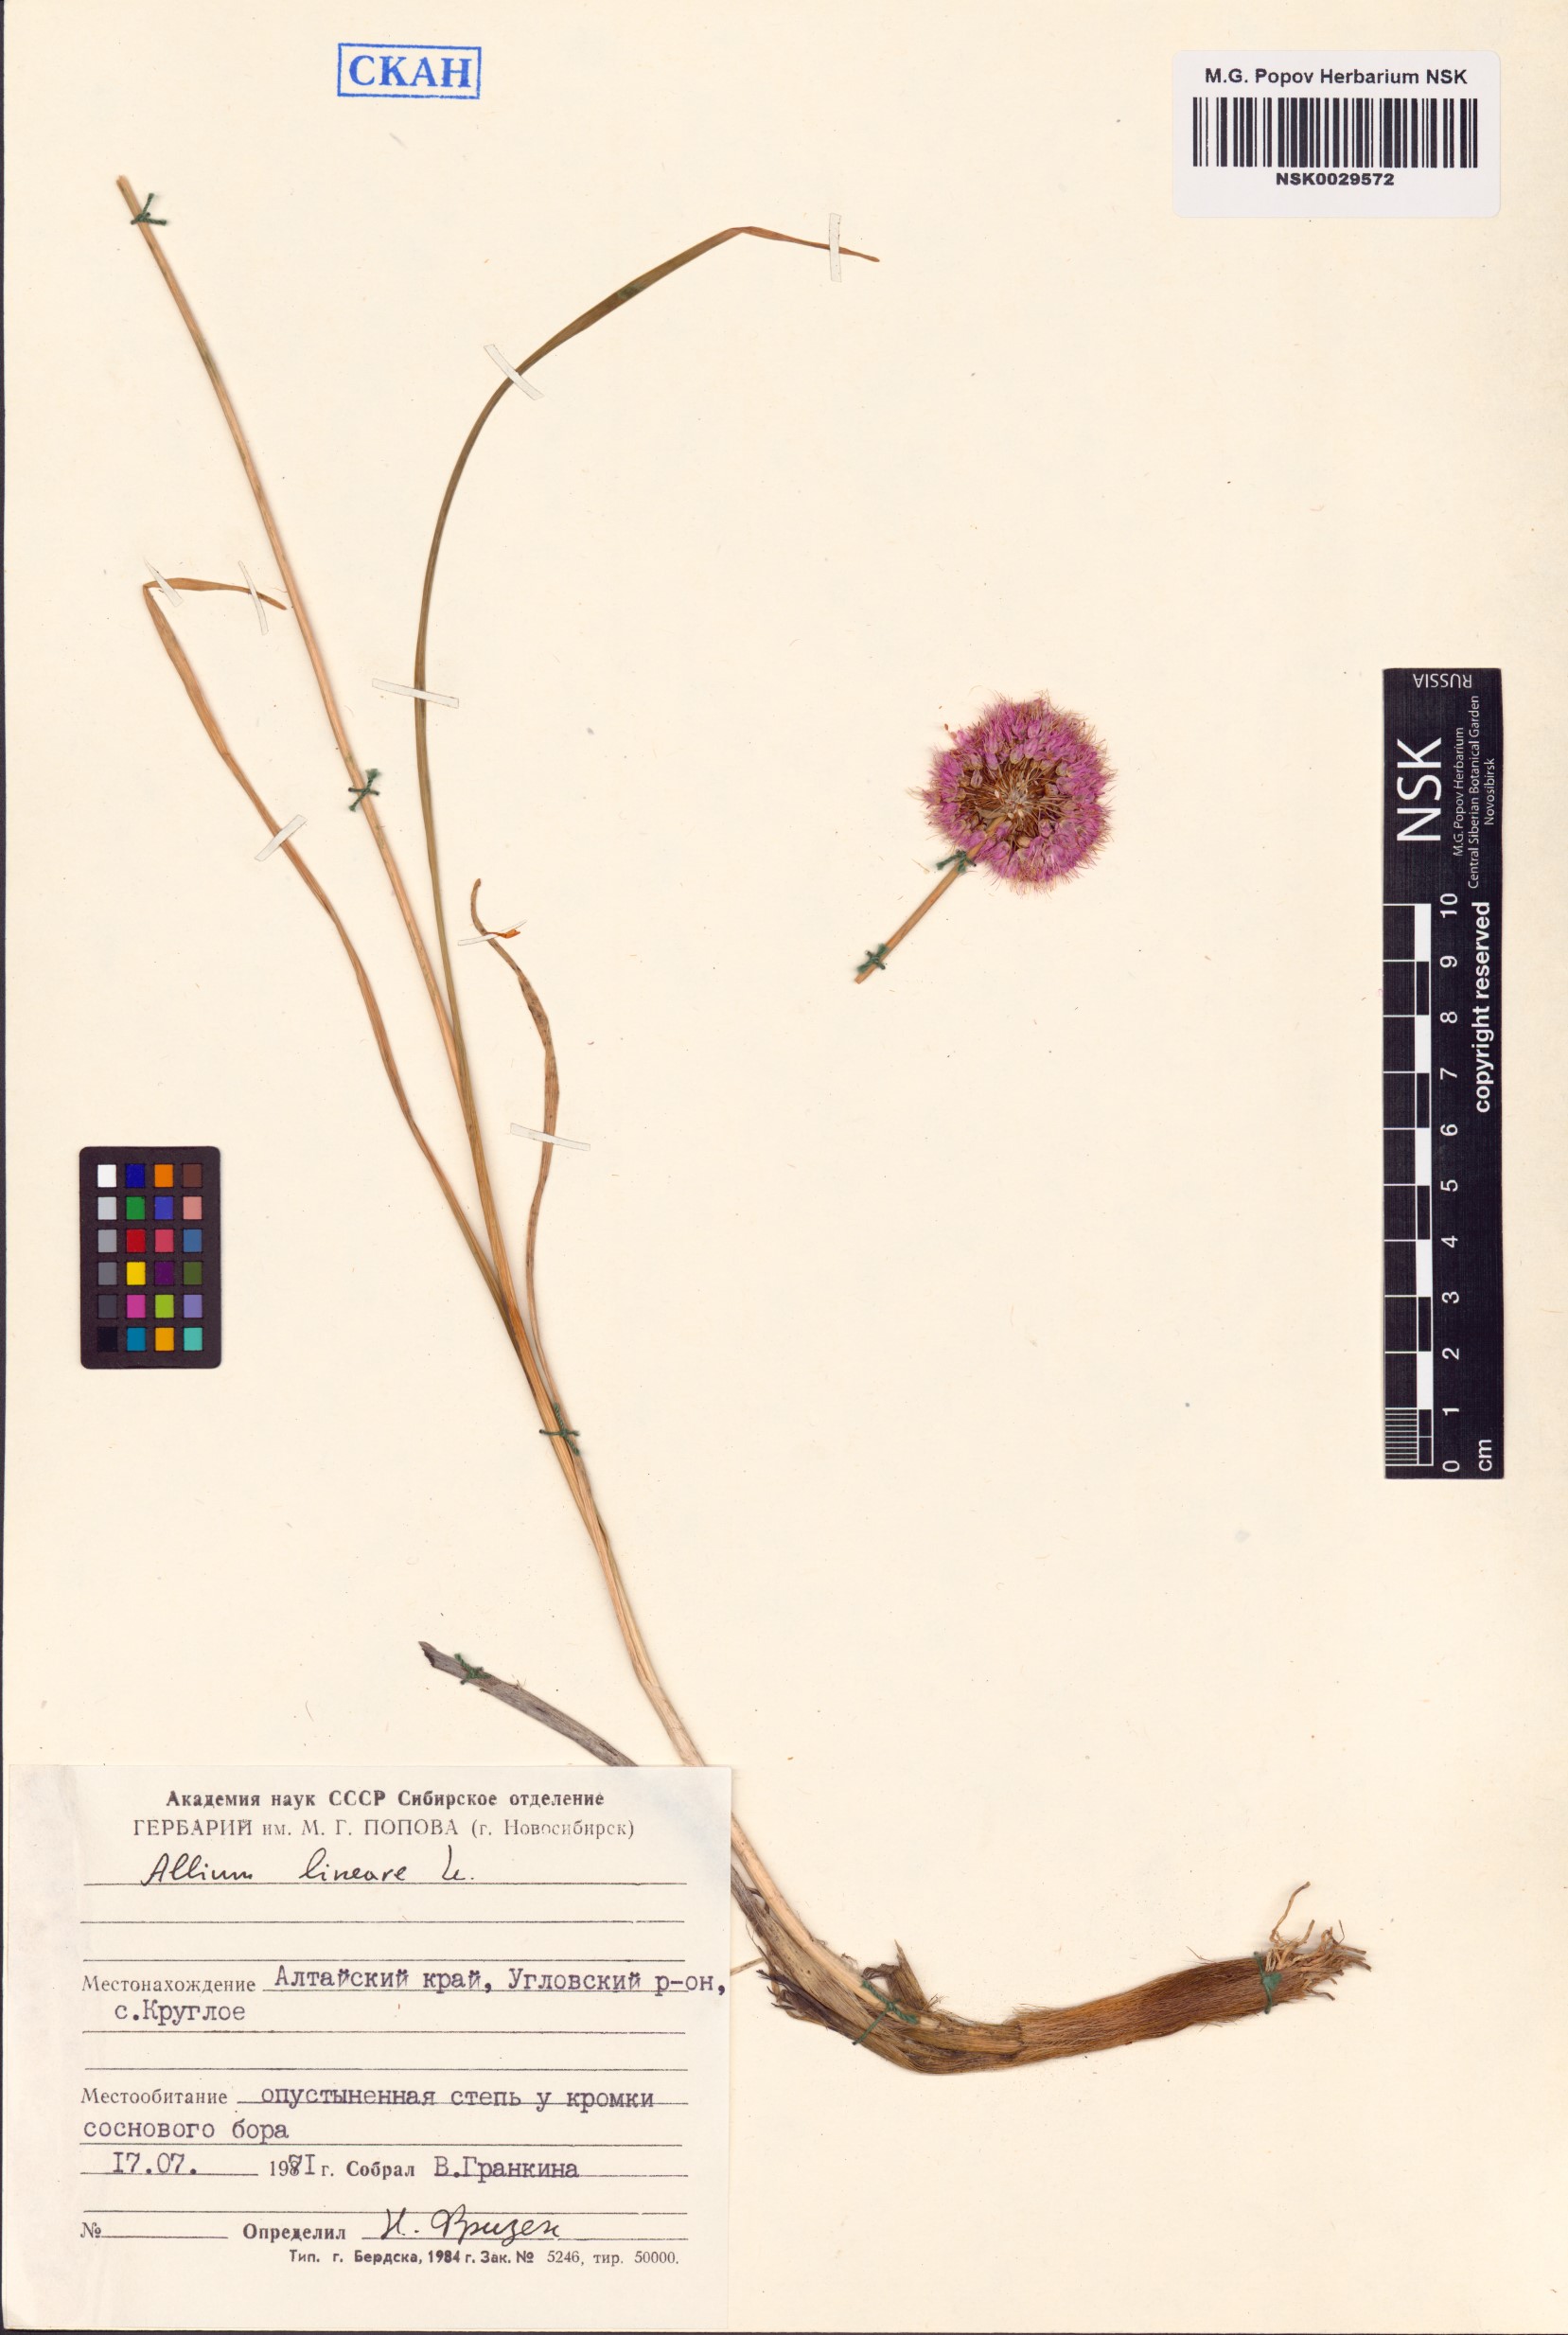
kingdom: Plantae
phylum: Tracheophyta
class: Liliopsida
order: Asparagales
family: Amaryllidaceae
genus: Allium
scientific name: Allium lineare
